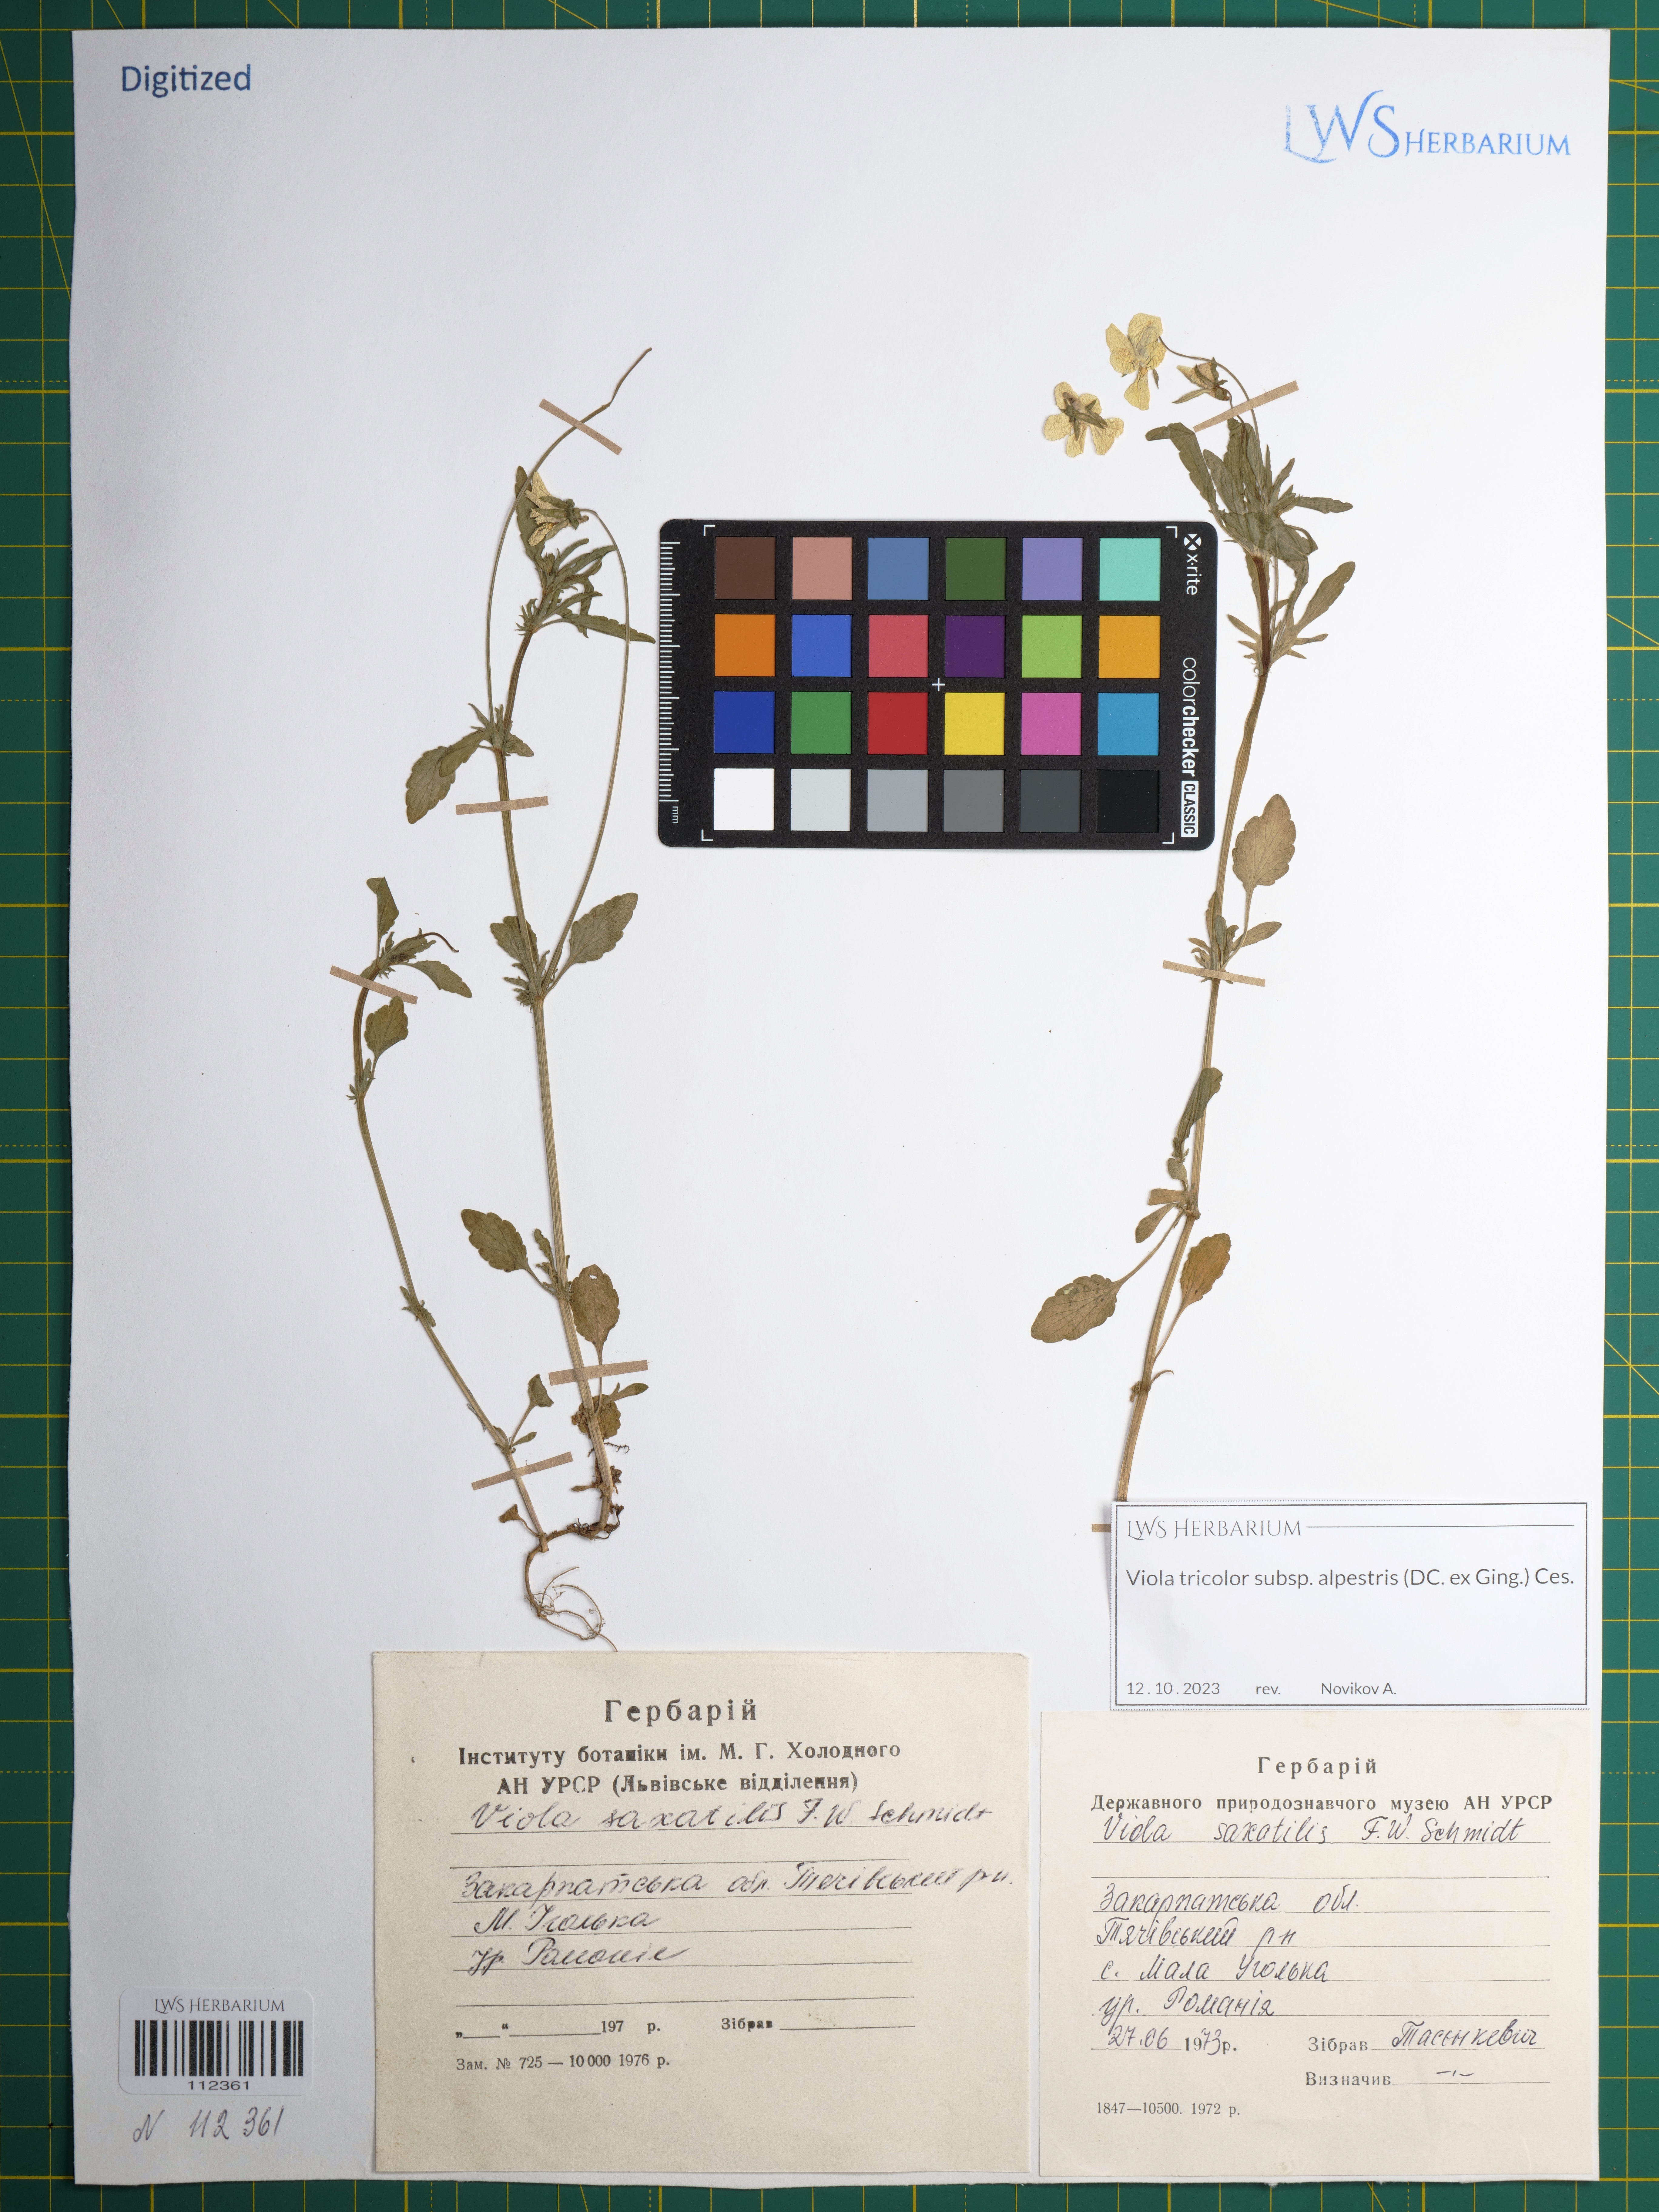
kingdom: Plantae
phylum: Tracheophyta
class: Magnoliopsida
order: Malpighiales
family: Violaceae
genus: Viola
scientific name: Viola tricolor
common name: Pansy
